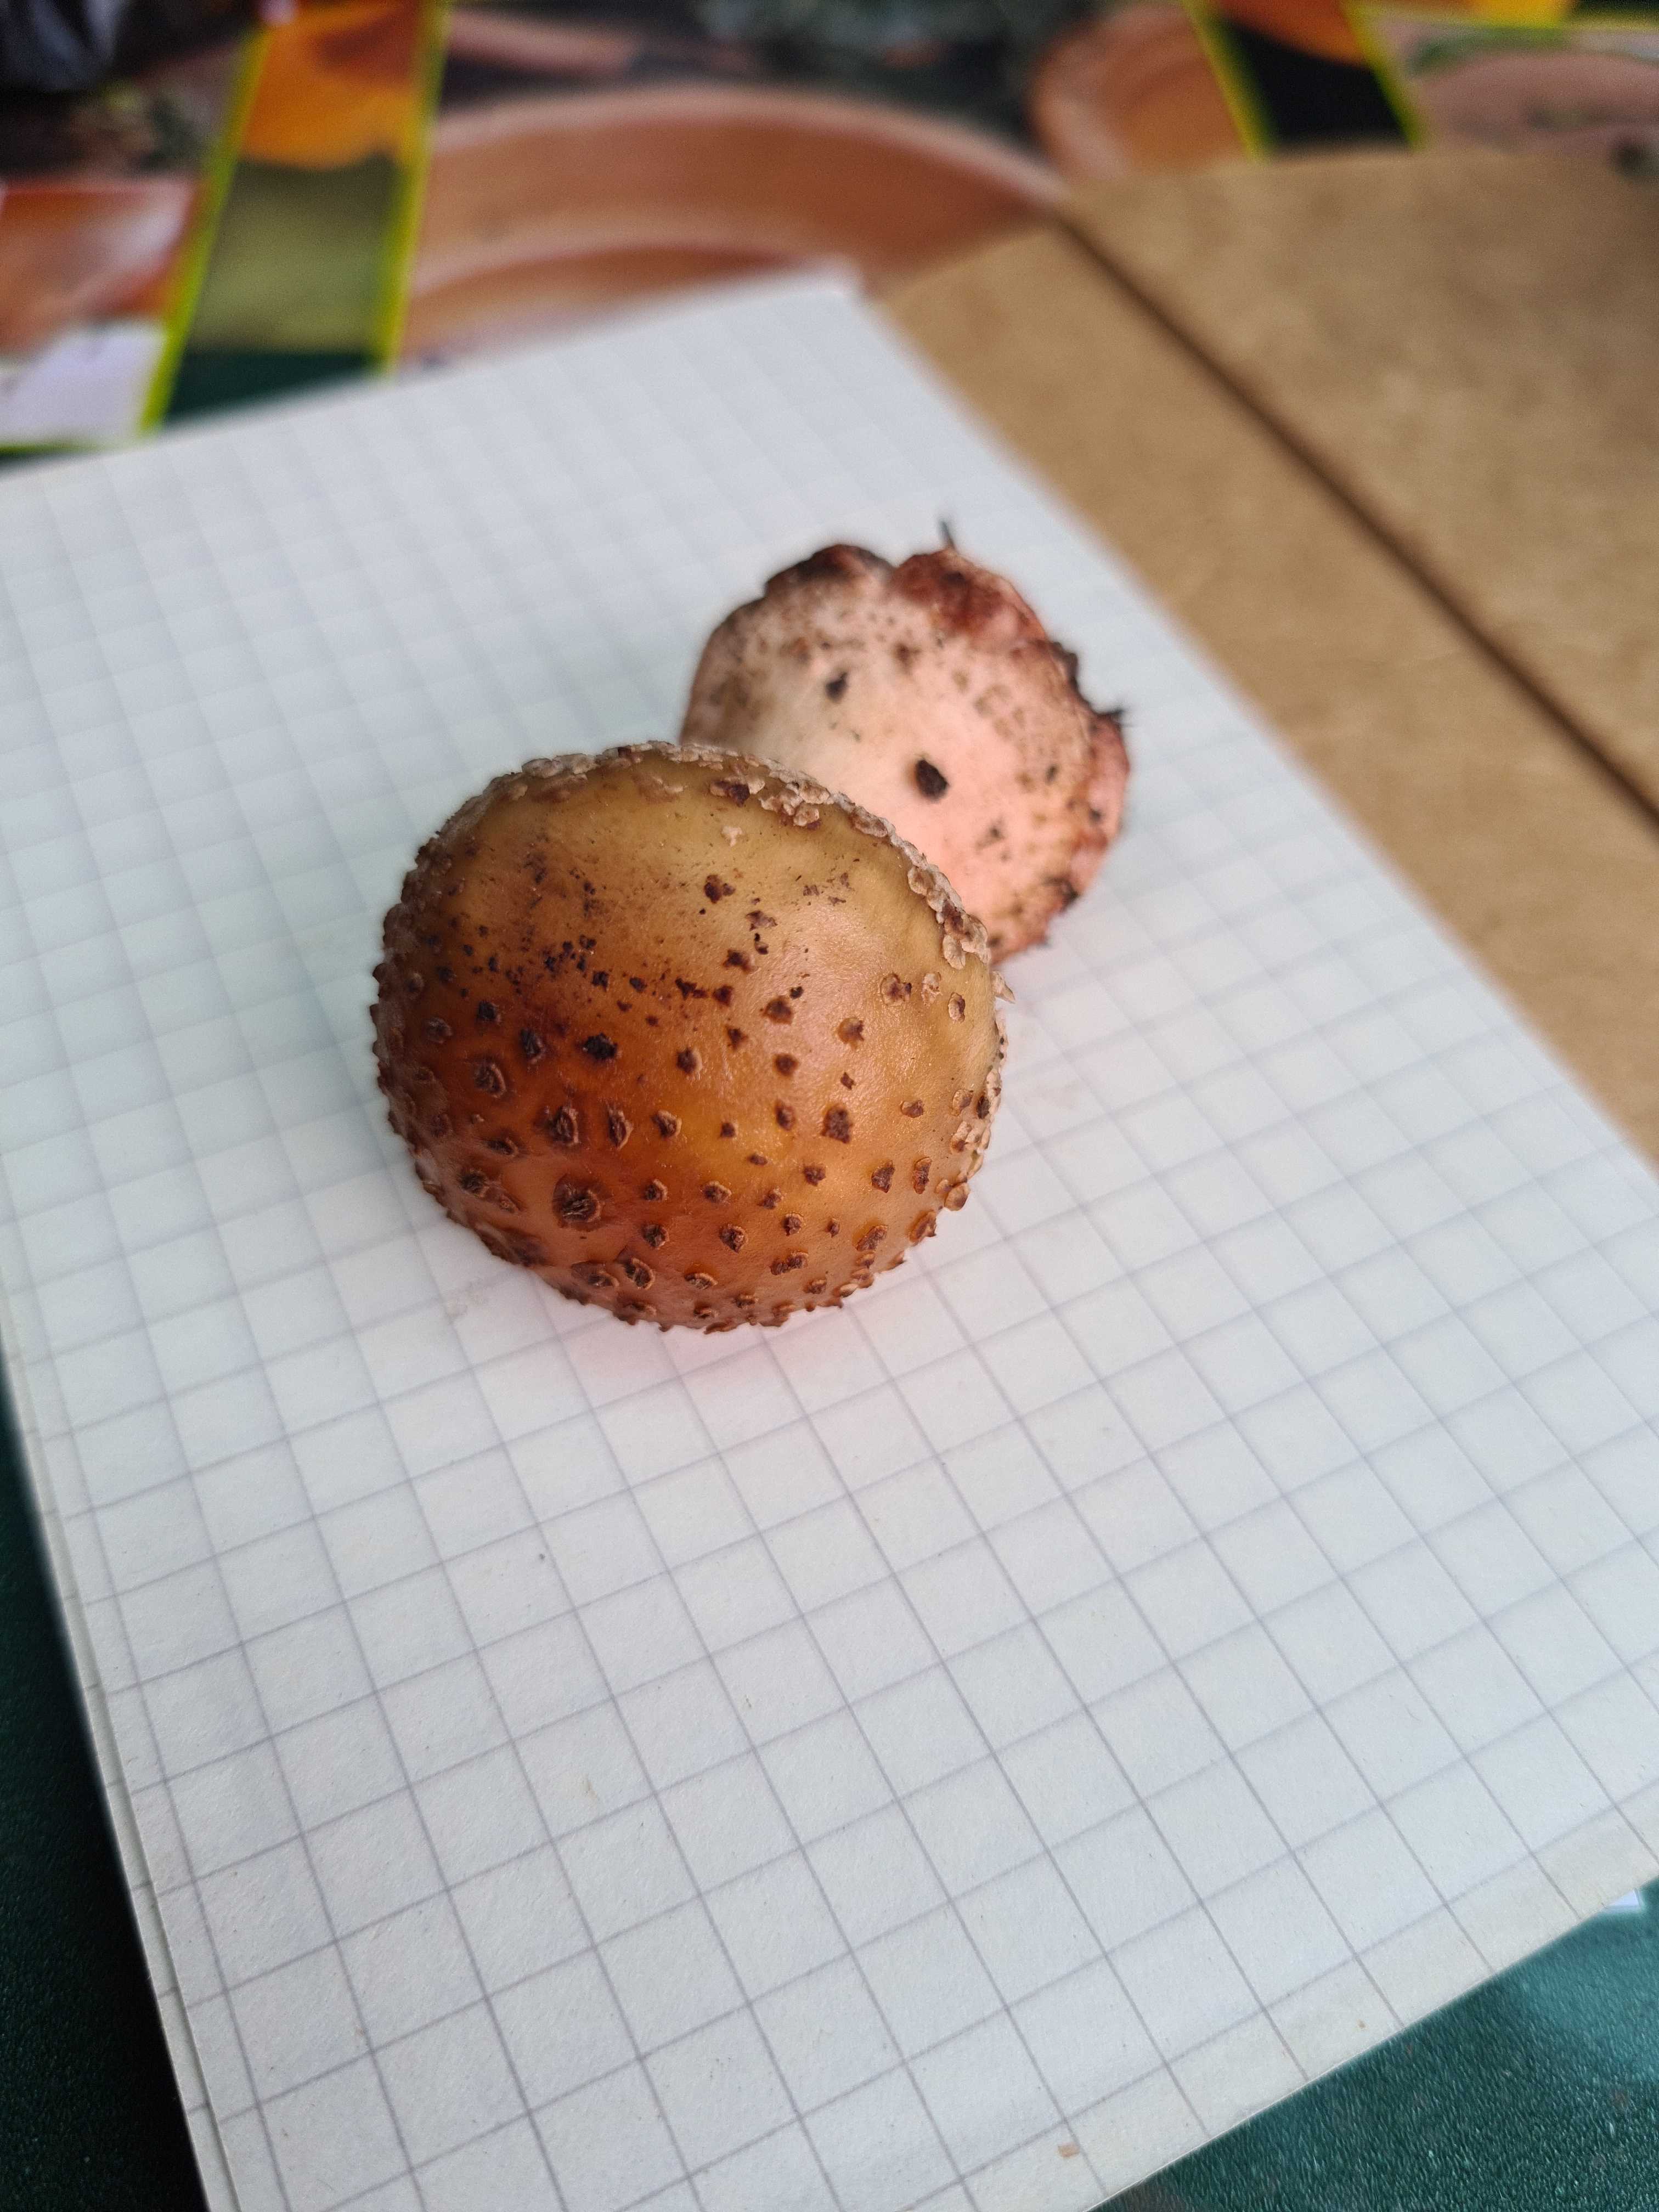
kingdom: Fungi
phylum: Basidiomycota
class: Agaricomycetes
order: Agaricales
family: Amanitaceae
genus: Amanita
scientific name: Amanita rubescens
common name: rødmende fluesvamp
